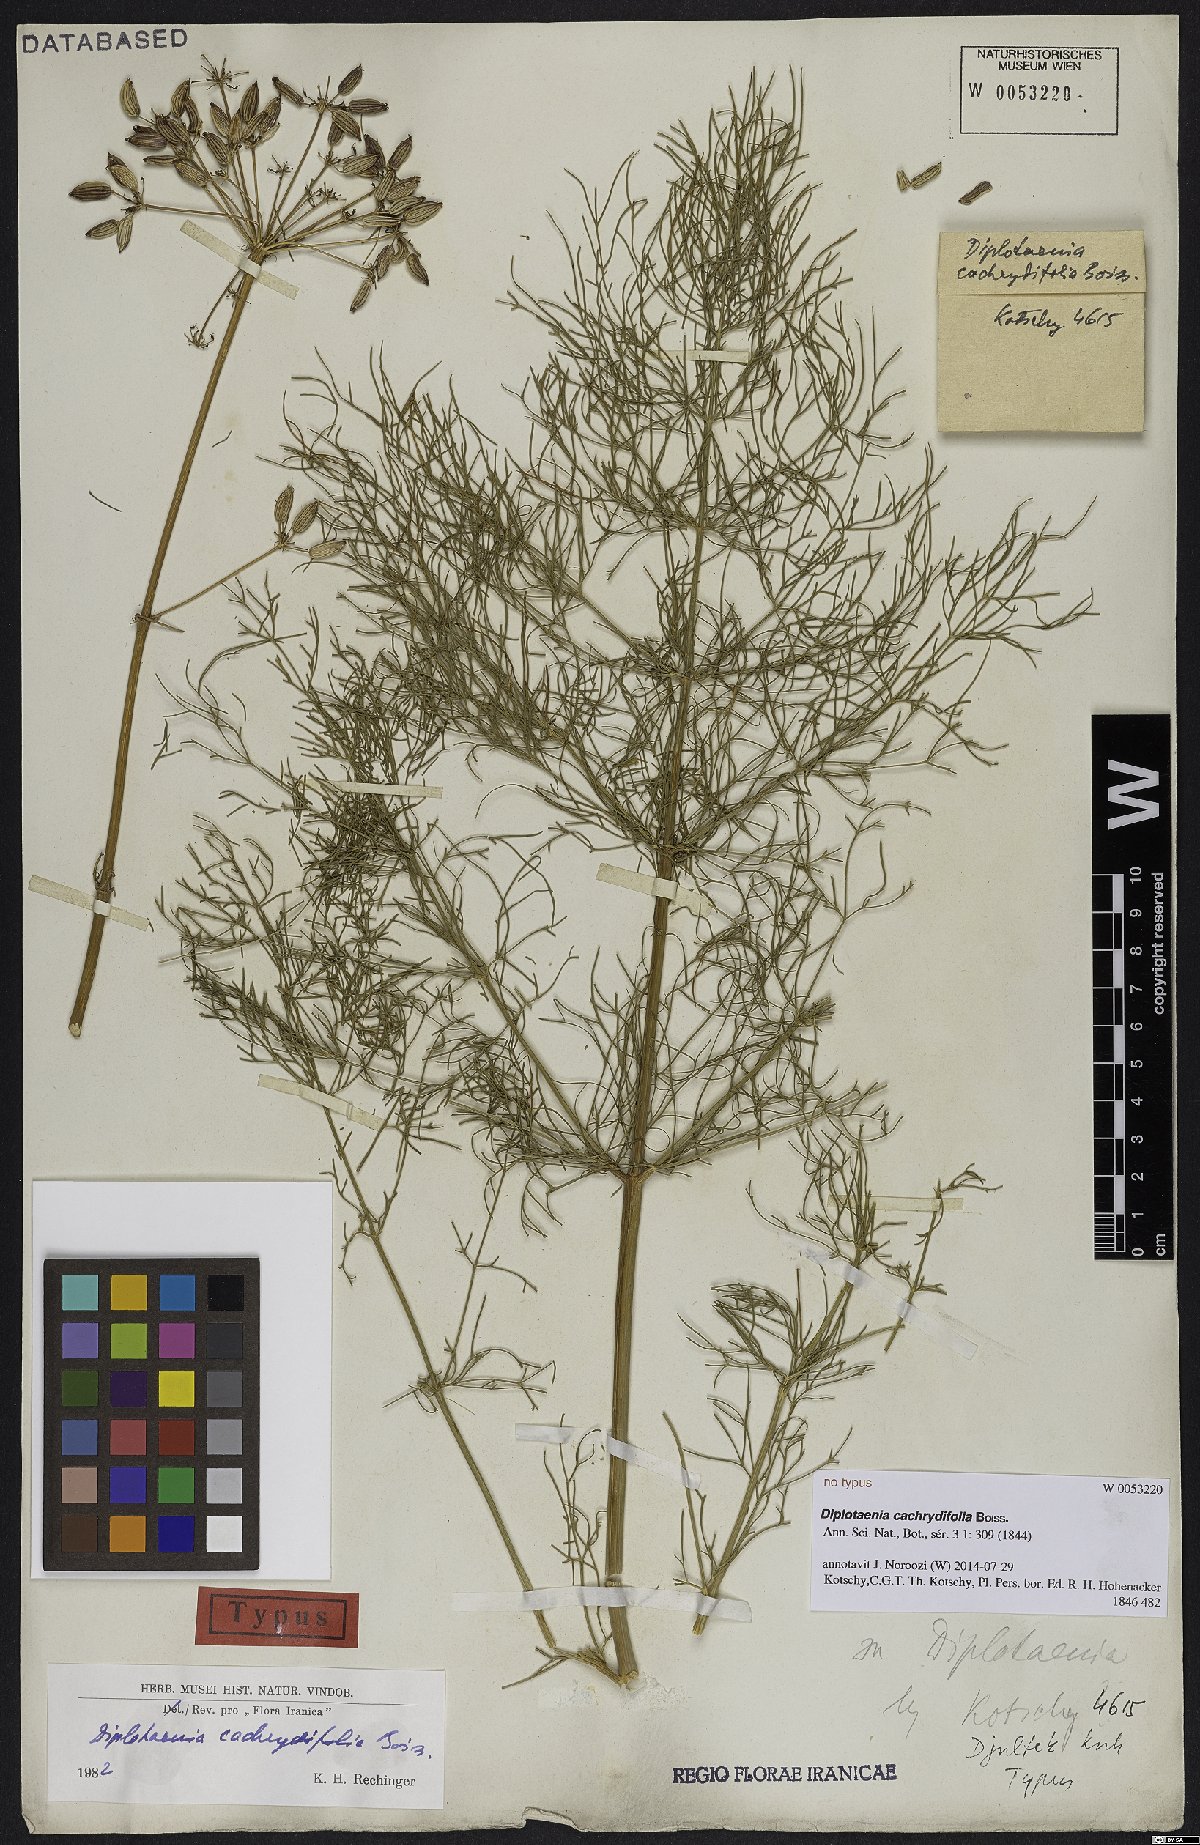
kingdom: Plantae
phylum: Tracheophyta
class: Magnoliopsida
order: Apiales
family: Apiaceae
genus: Diplotaenia
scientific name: Diplotaenia cachrydifolia
